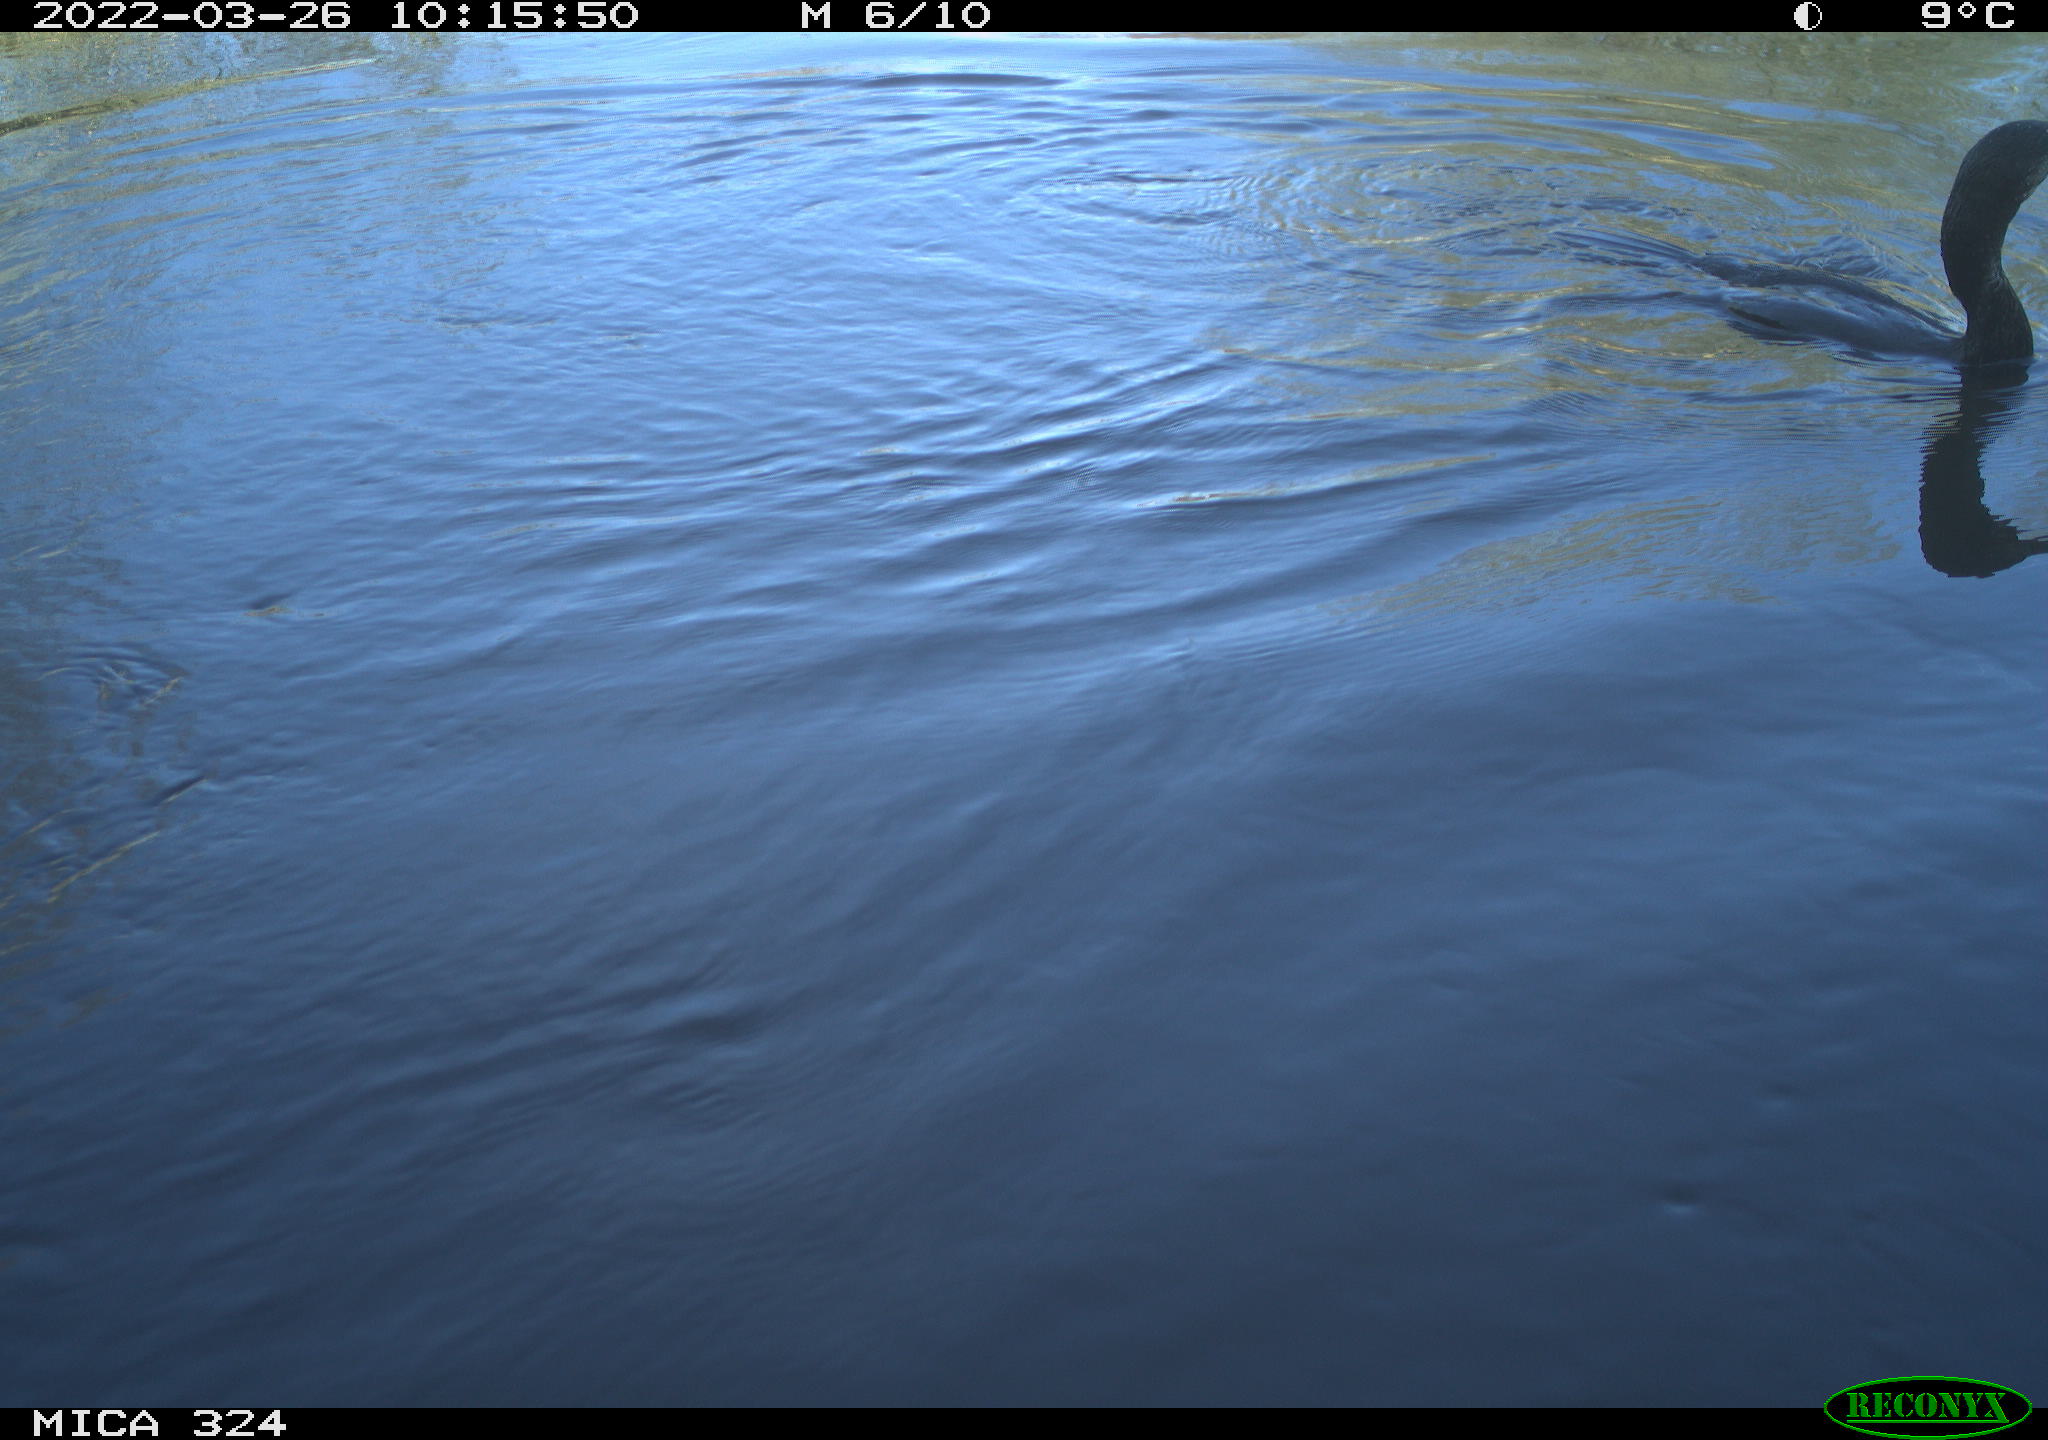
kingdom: Animalia
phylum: Chordata
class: Aves
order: Suliformes
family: Phalacrocoracidae
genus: Phalacrocorax
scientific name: Phalacrocorax carbo
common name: Great cormorant
